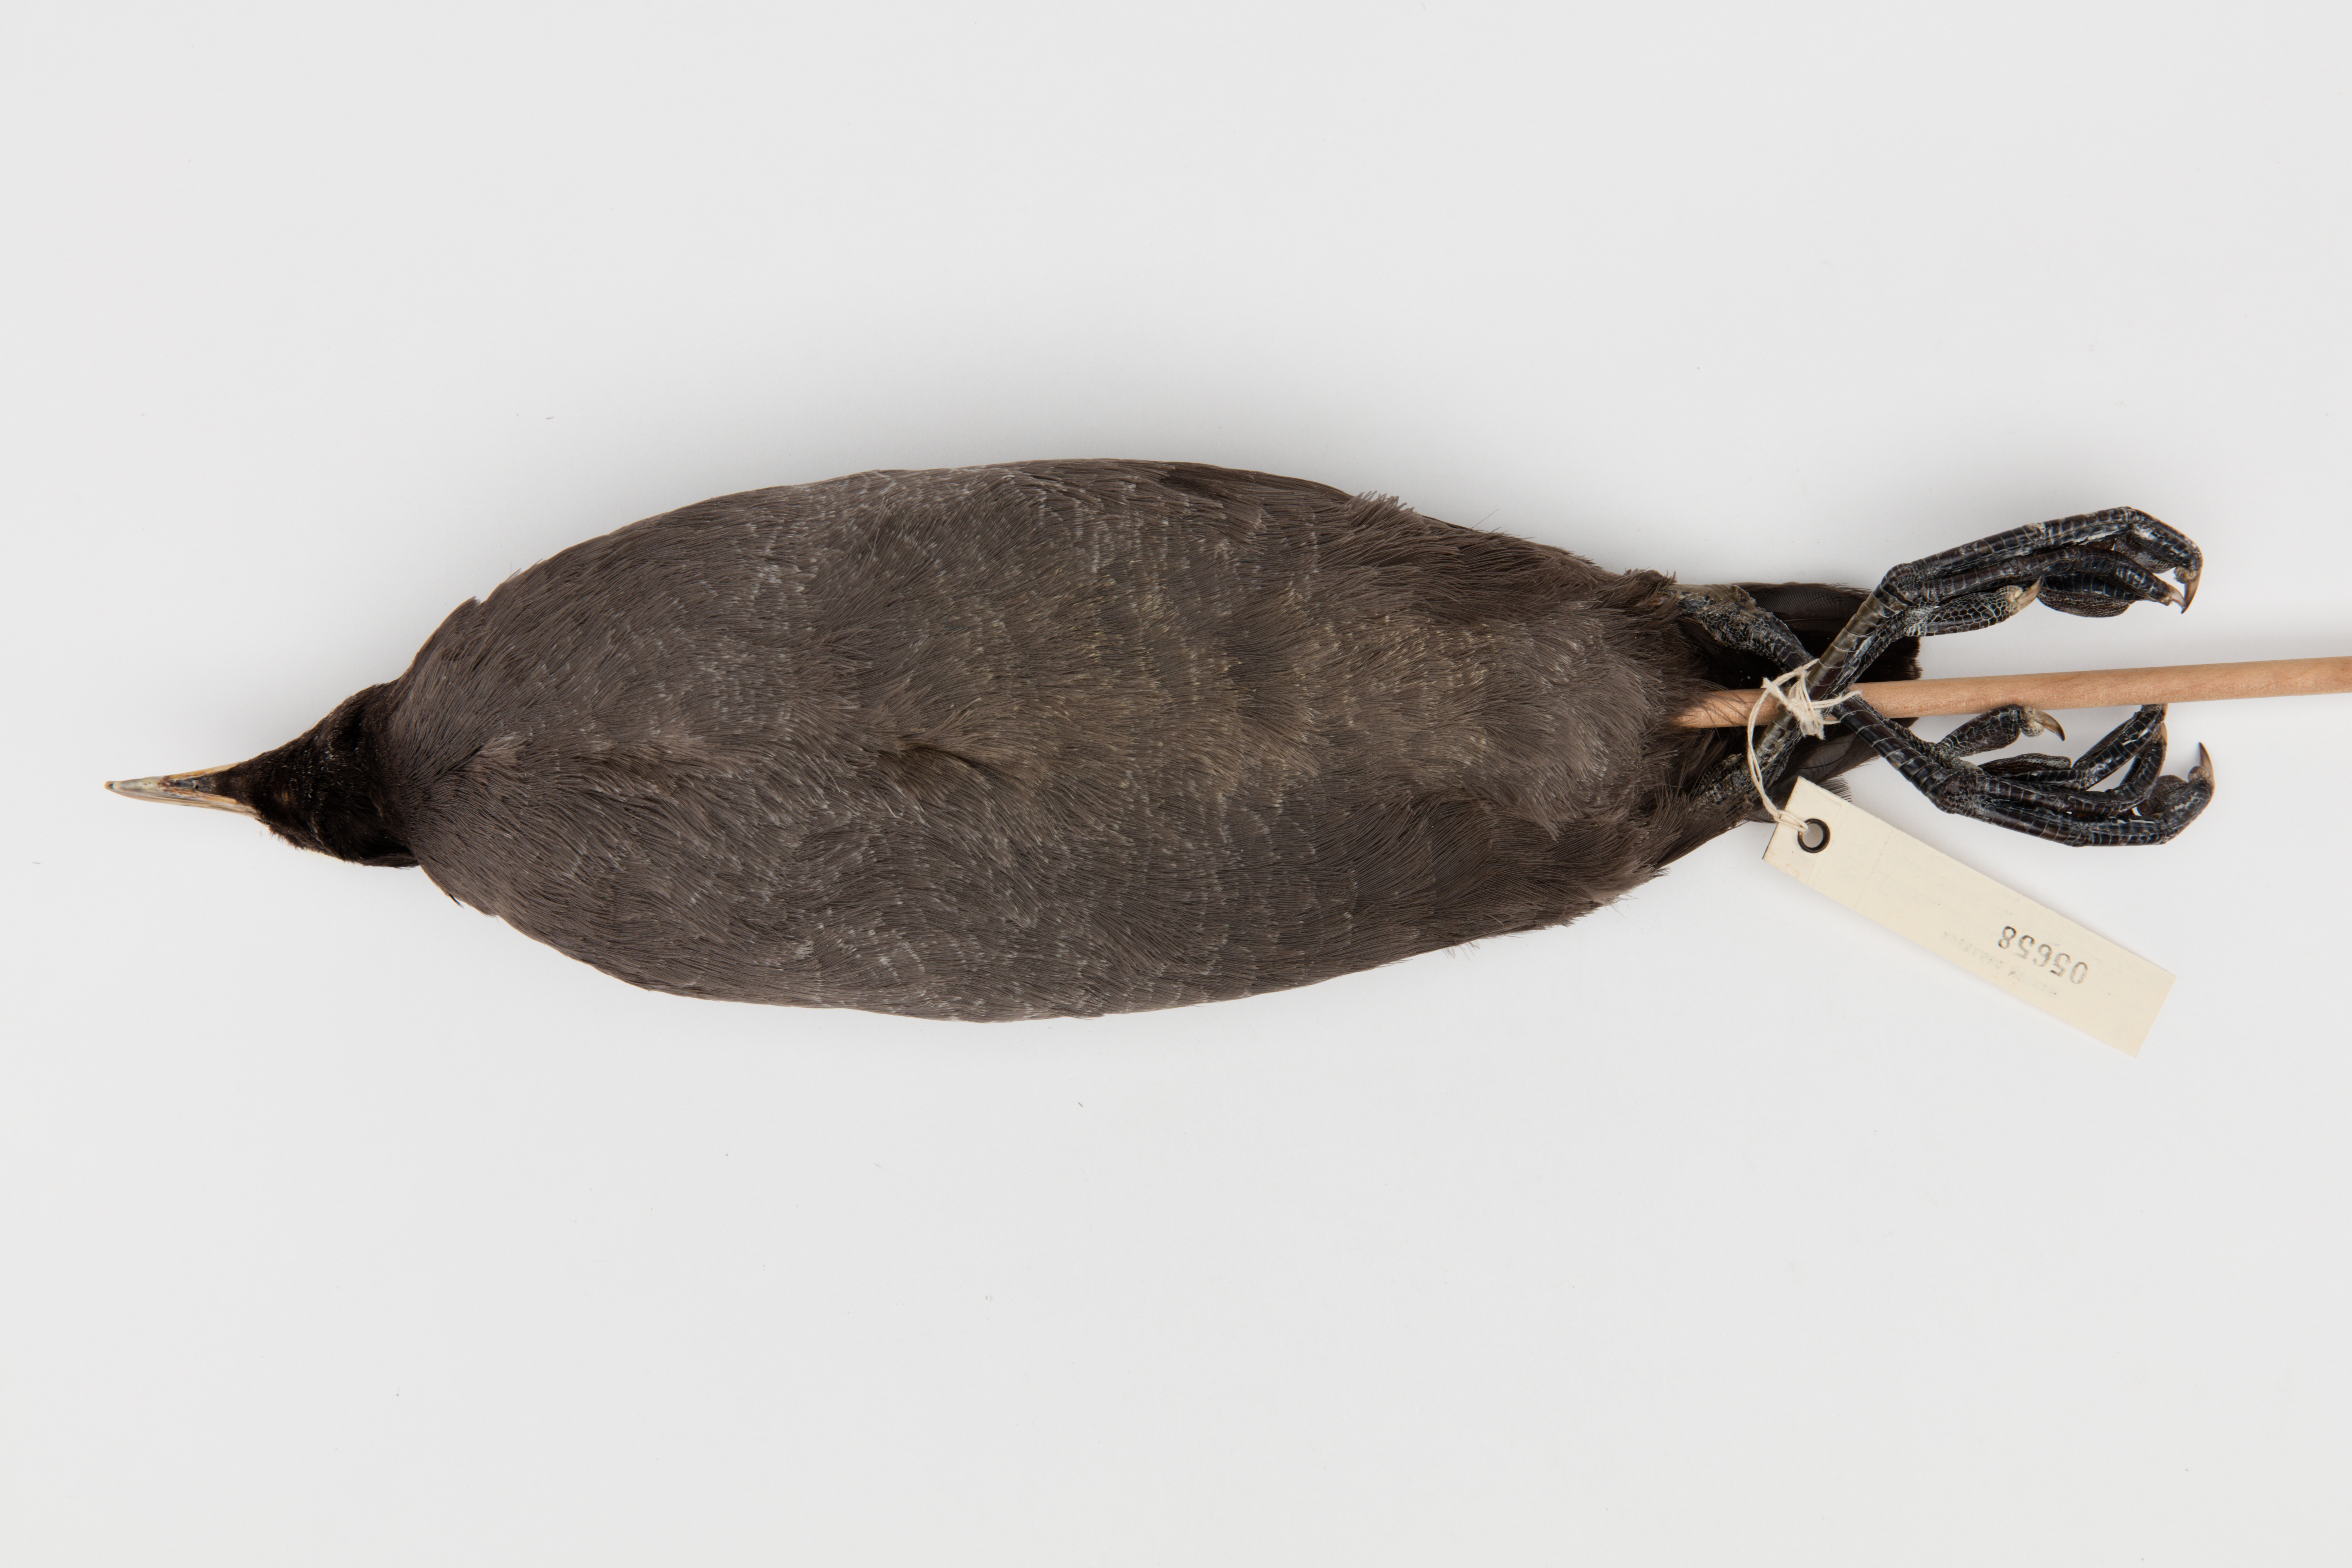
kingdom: Animalia
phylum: Chordata
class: Aves
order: Gruiformes
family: Rallidae
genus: Fulica
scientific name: Fulica atra
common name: Eurasian coot
